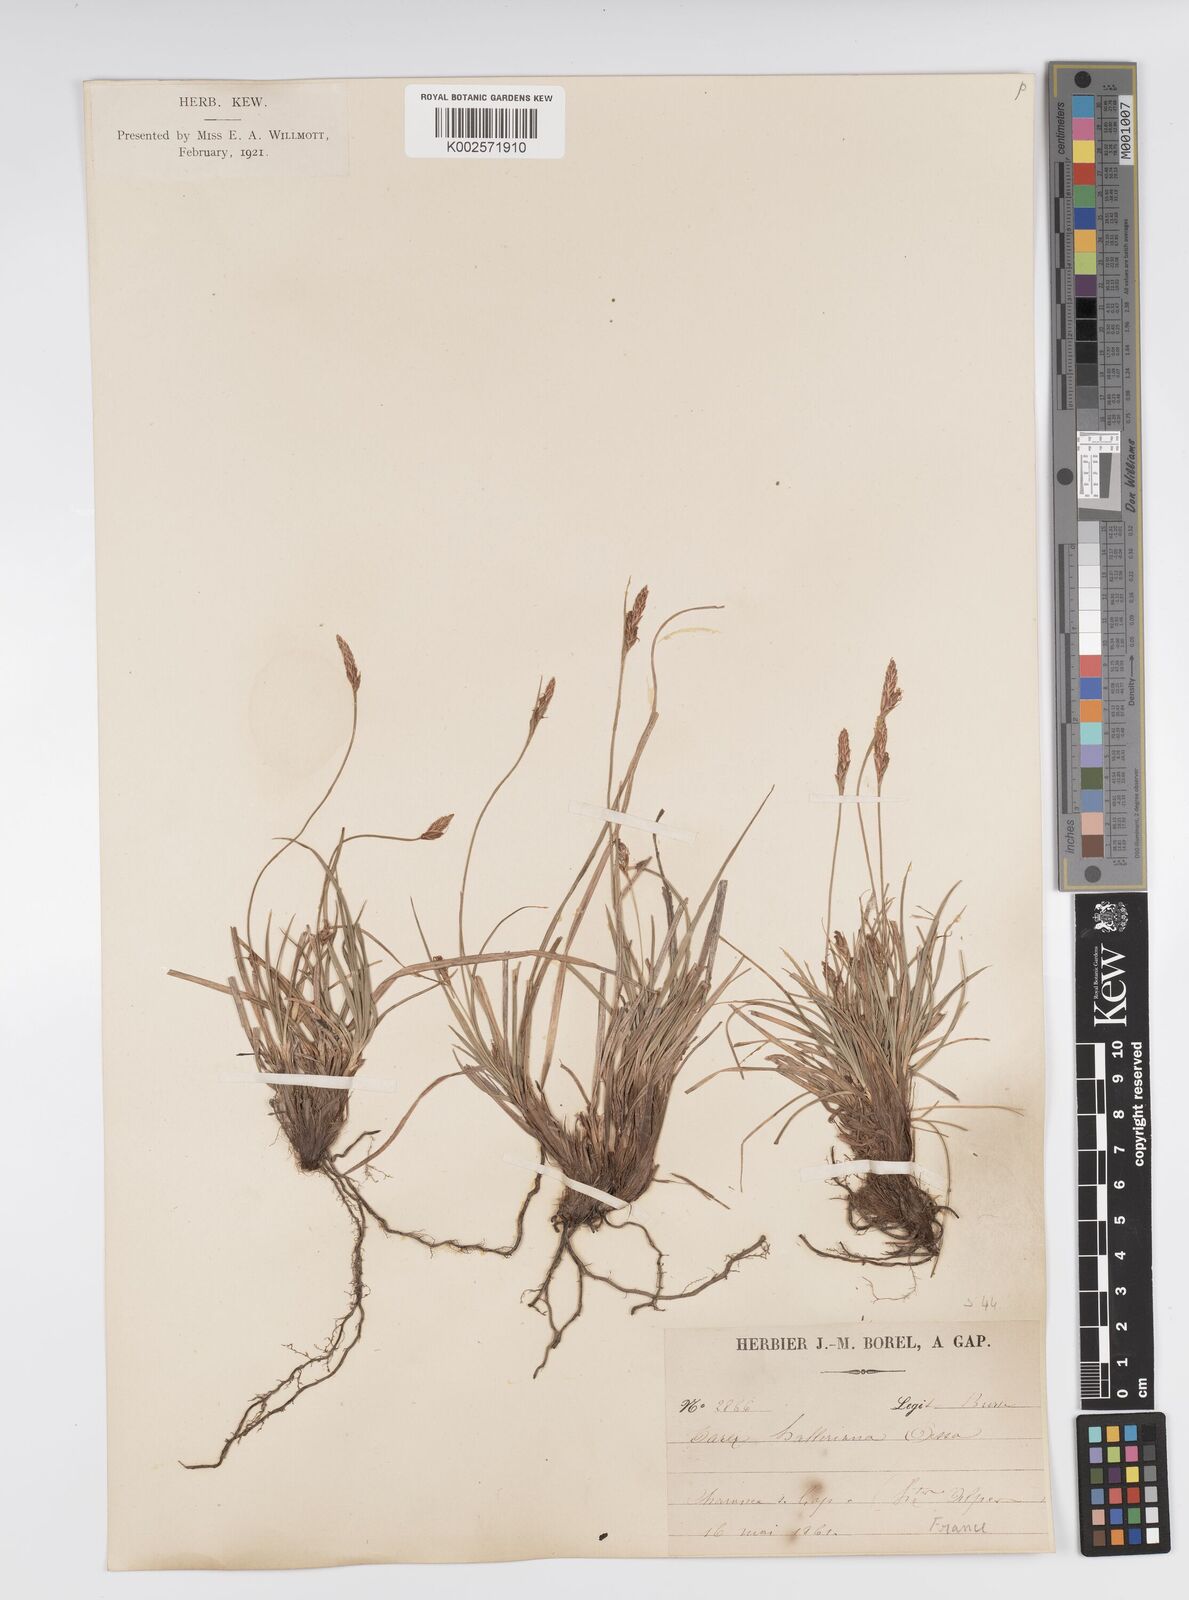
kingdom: Plantae
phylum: Tracheophyta
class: Liliopsida
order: Poales
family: Cyperaceae
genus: Carex
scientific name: Carex halleriana
